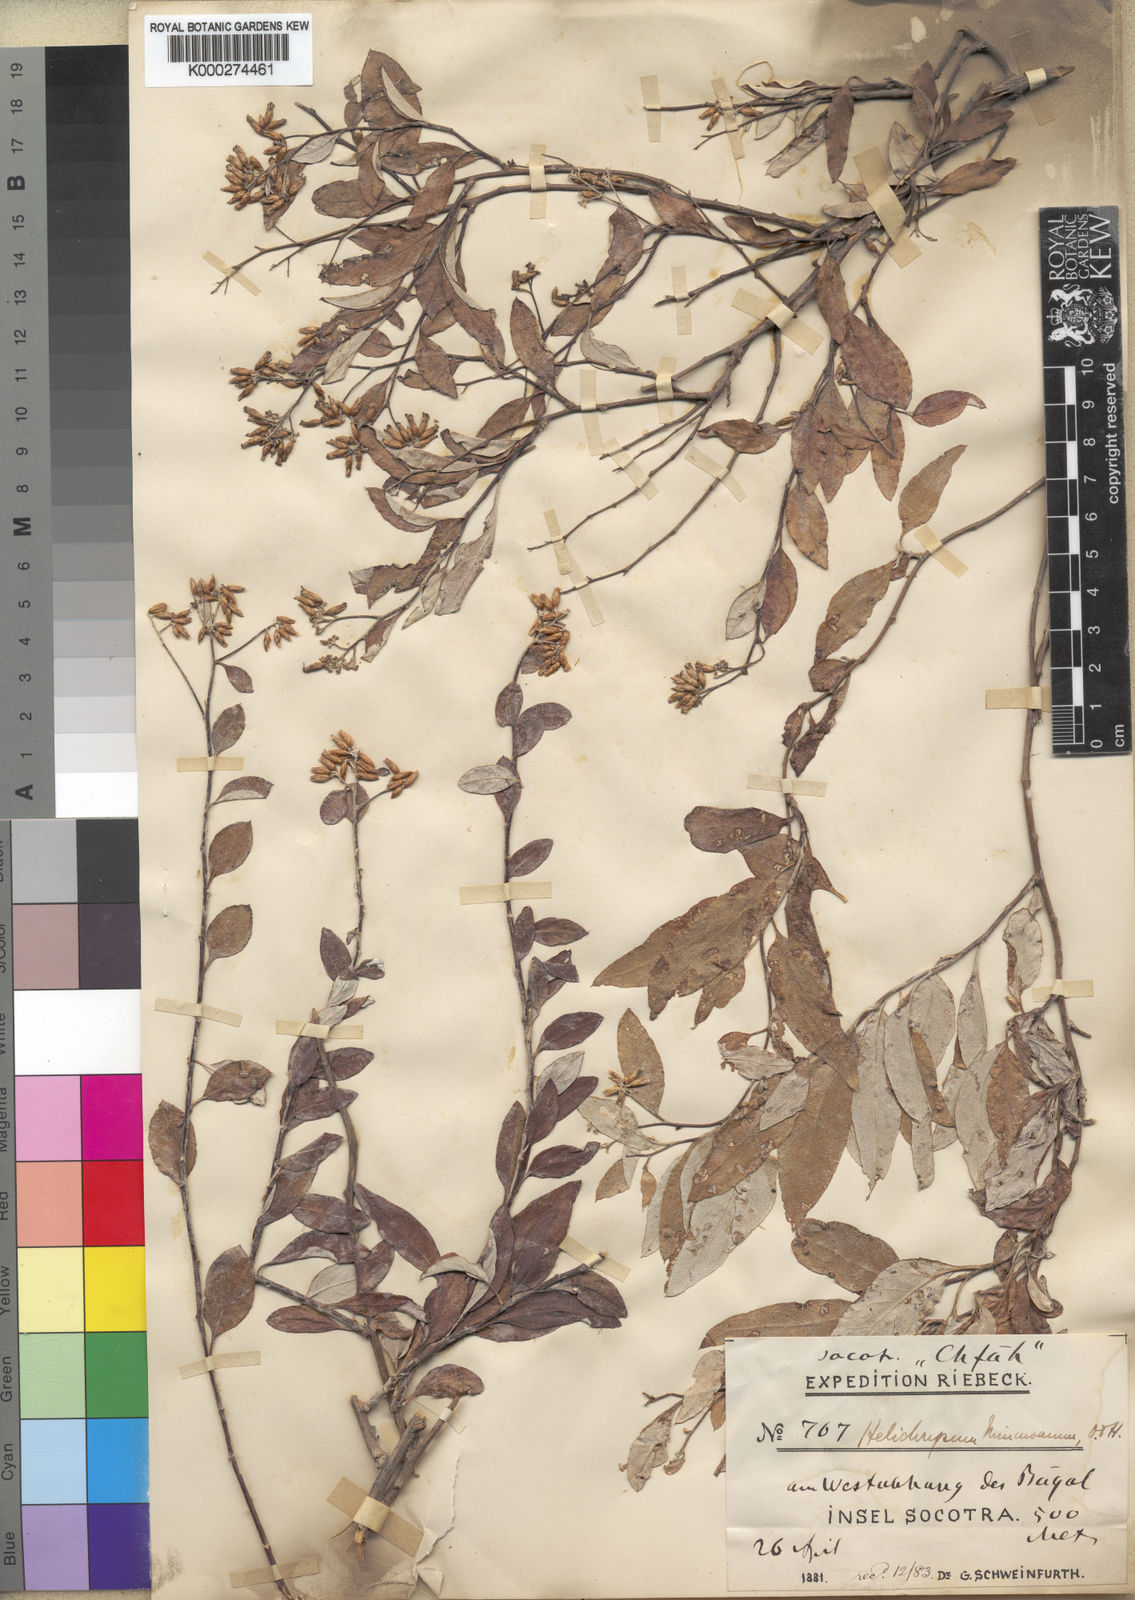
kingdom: Plantae
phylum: Tracheophyta
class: Magnoliopsida
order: Asterales
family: Asteraceae
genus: Libinhania
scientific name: Libinhania nimmoana
